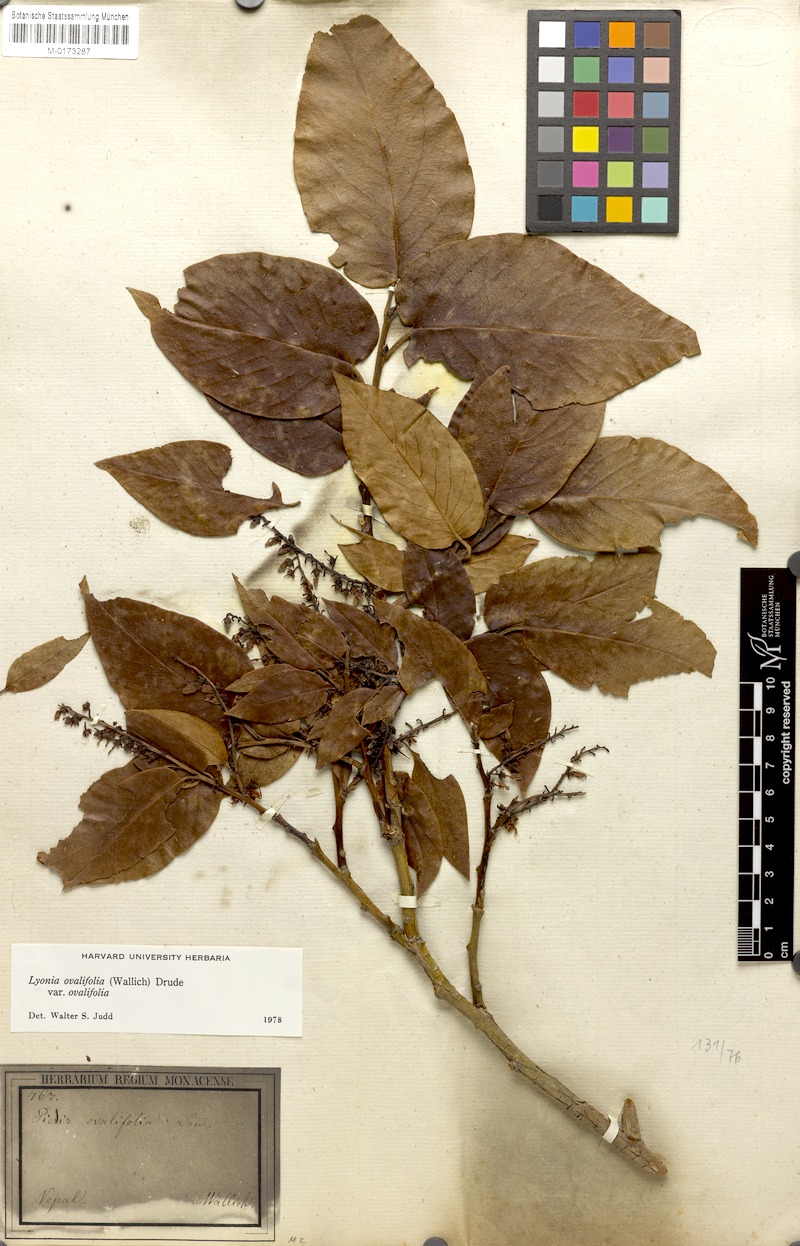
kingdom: Plantae
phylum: Tracheophyta
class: Magnoliopsida
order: Ericales
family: Ericaceae
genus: Lyonia
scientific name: Lyonia ovalifolia
